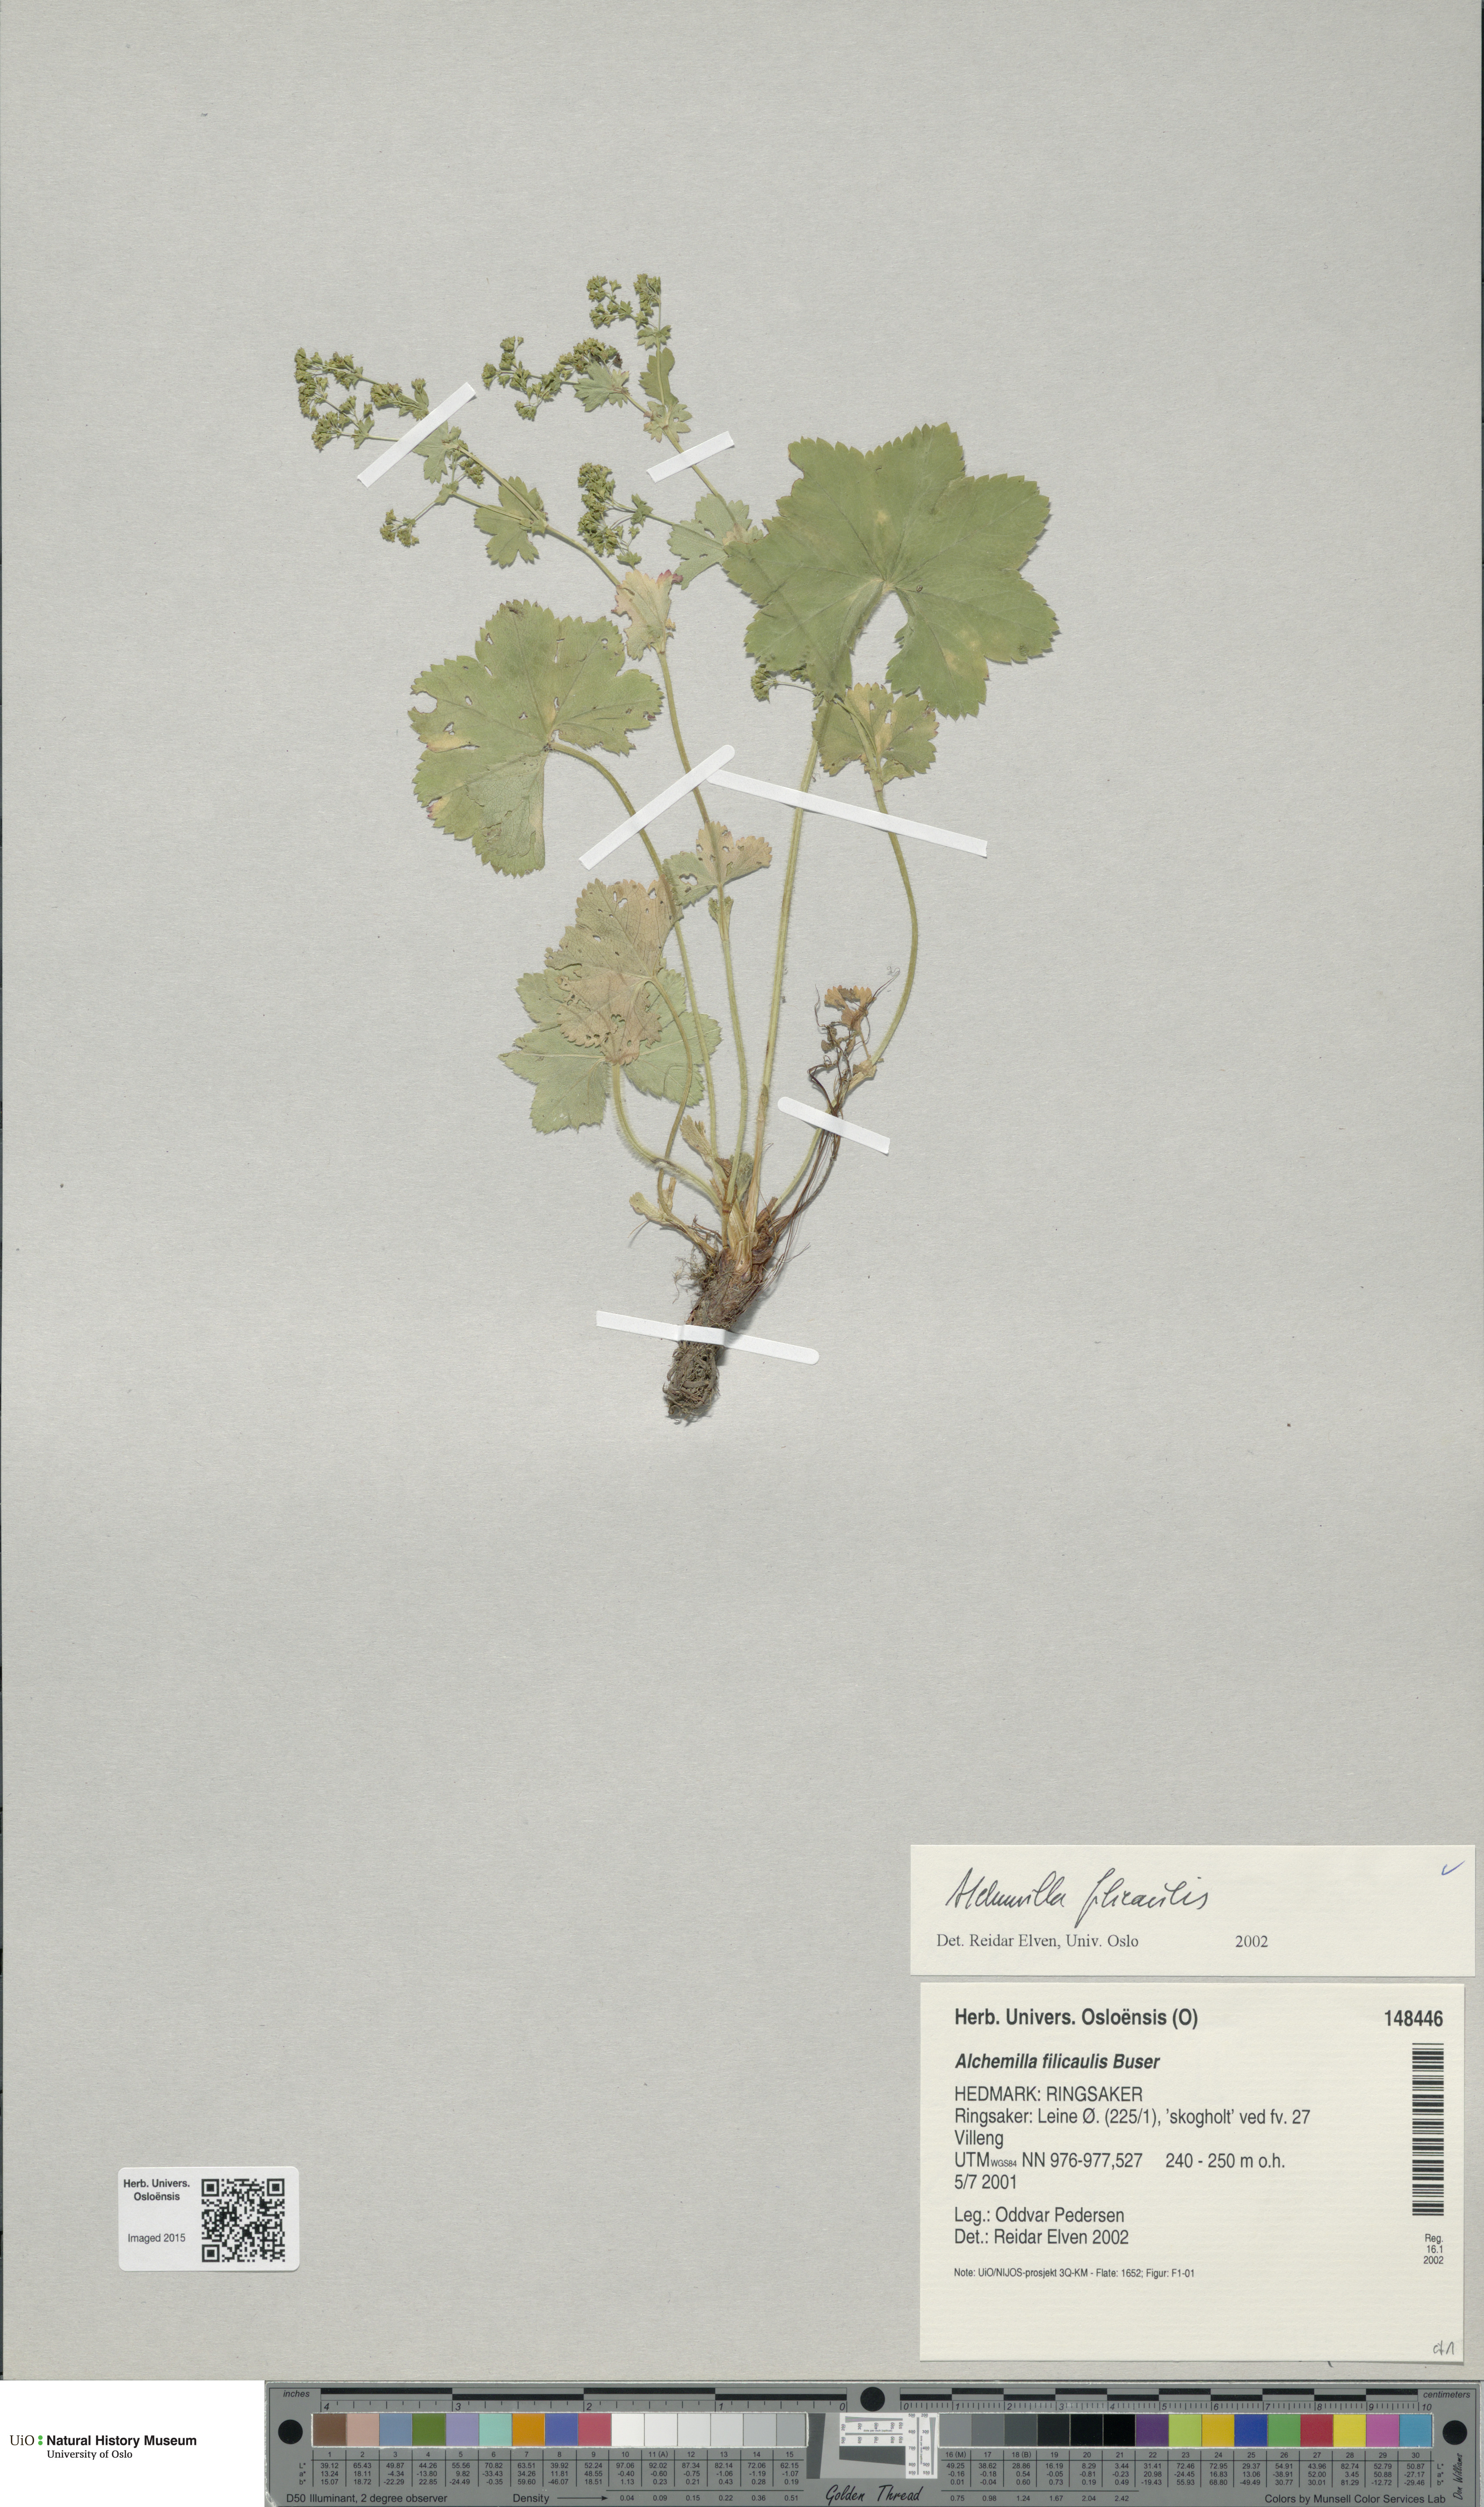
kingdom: Plantae
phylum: Tracheophyta
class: Magnoliopsida
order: Rosales
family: Rosaceae
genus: Alchemilla
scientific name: Alchemilla filicaulis
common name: Hairy lady's-mantle
